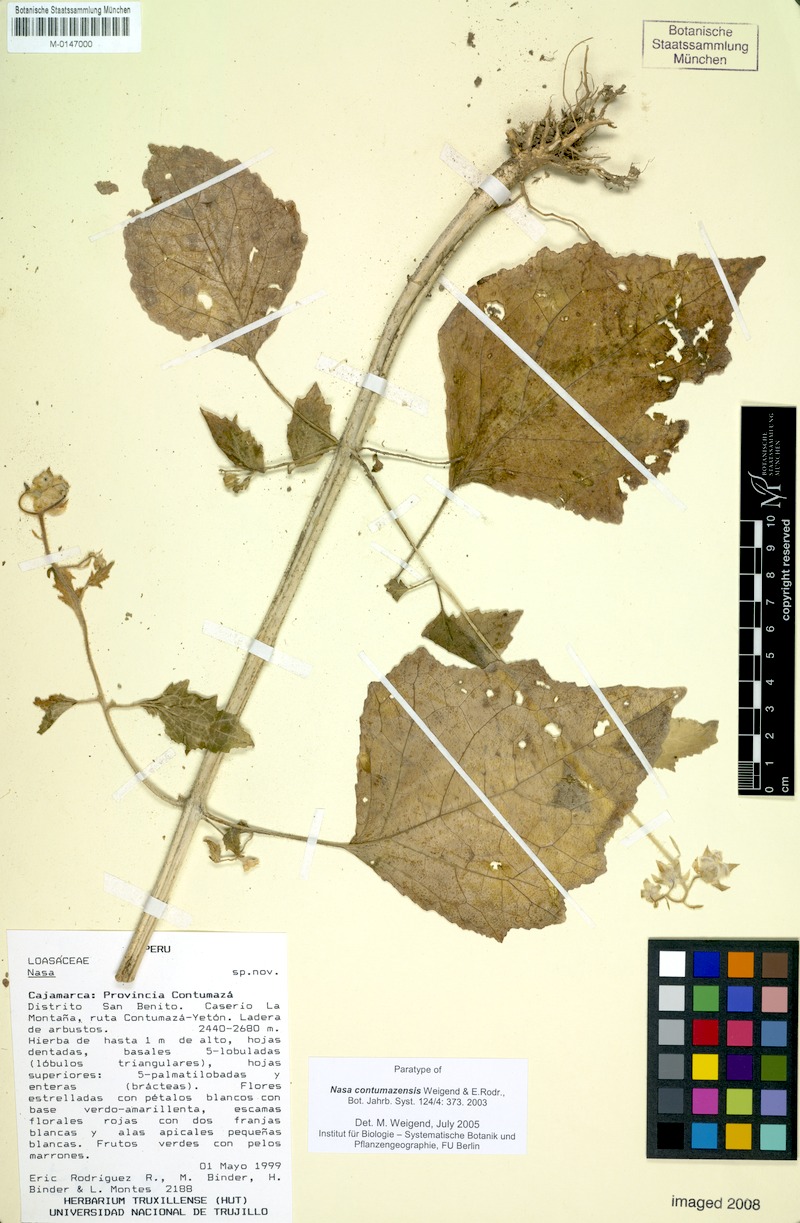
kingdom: Plantae
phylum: Tracheophyta
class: Magnoliopsida
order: Cornales
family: Loasaceae
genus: Nasa
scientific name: Nasa contumazensis
